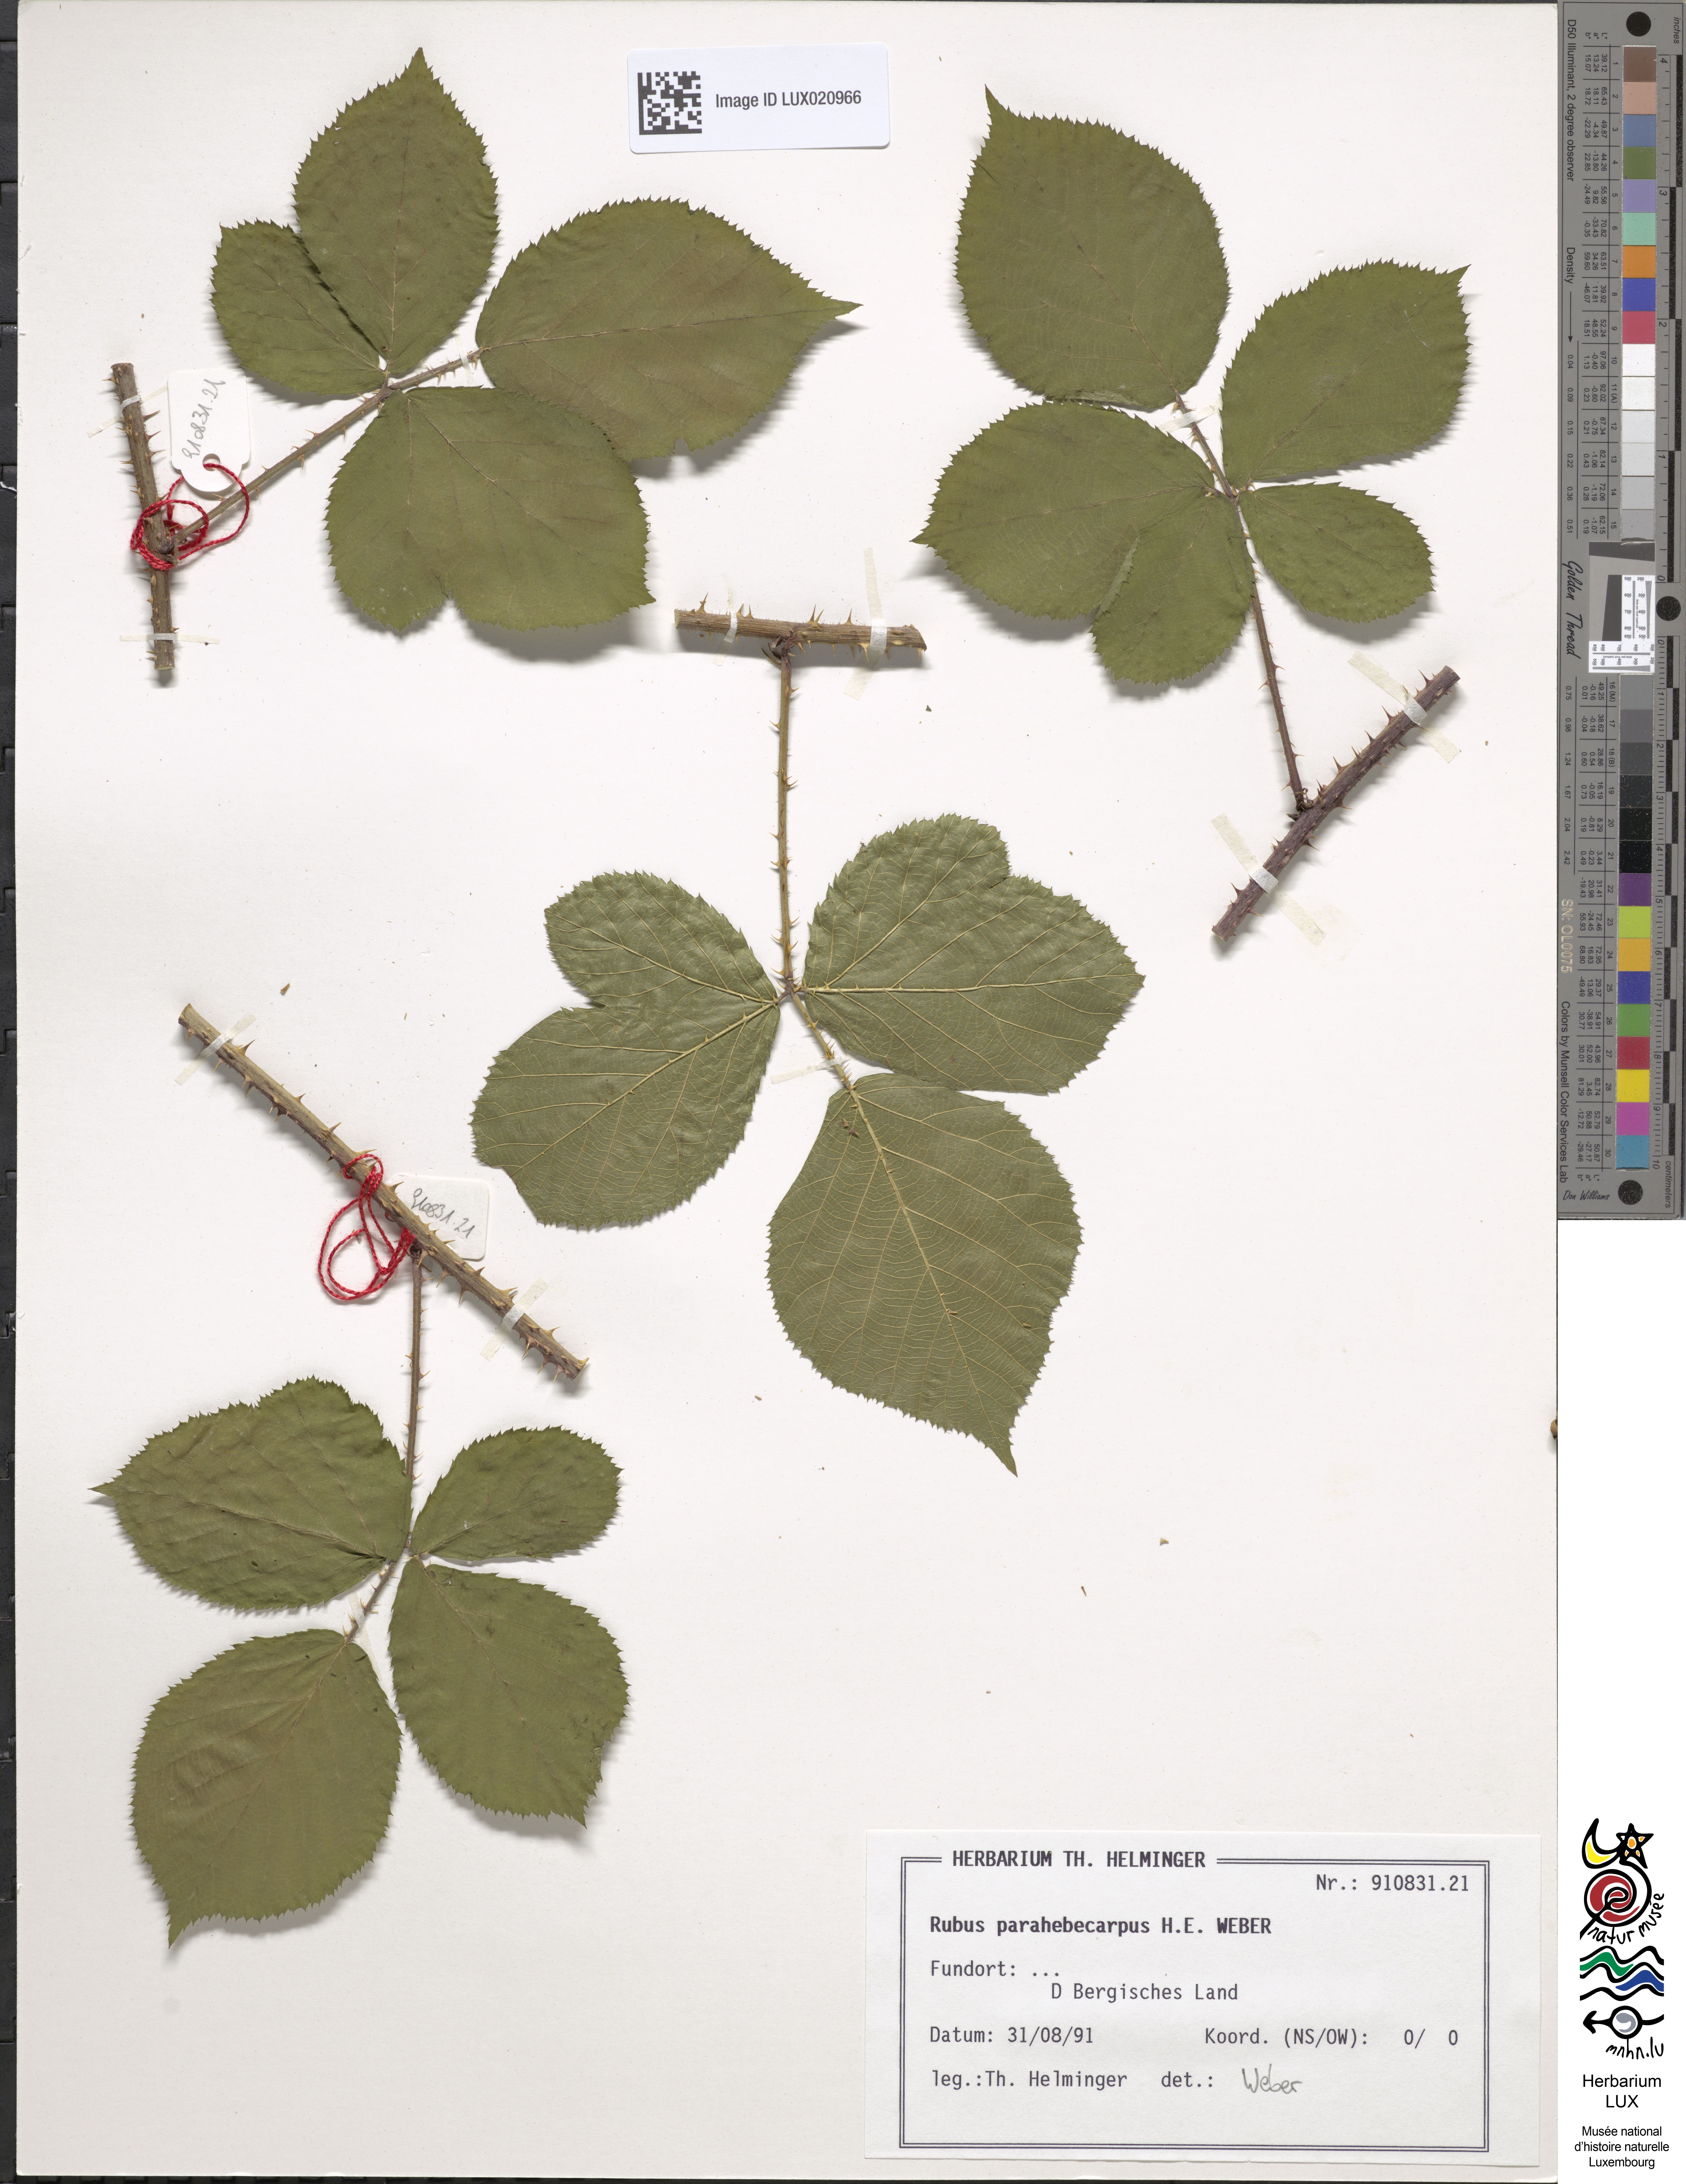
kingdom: Plantae
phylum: Tracheophyta
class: Magnoliopsida
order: Rosales
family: Rosaceae
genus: Rubus
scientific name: Rubus grandiflorus
